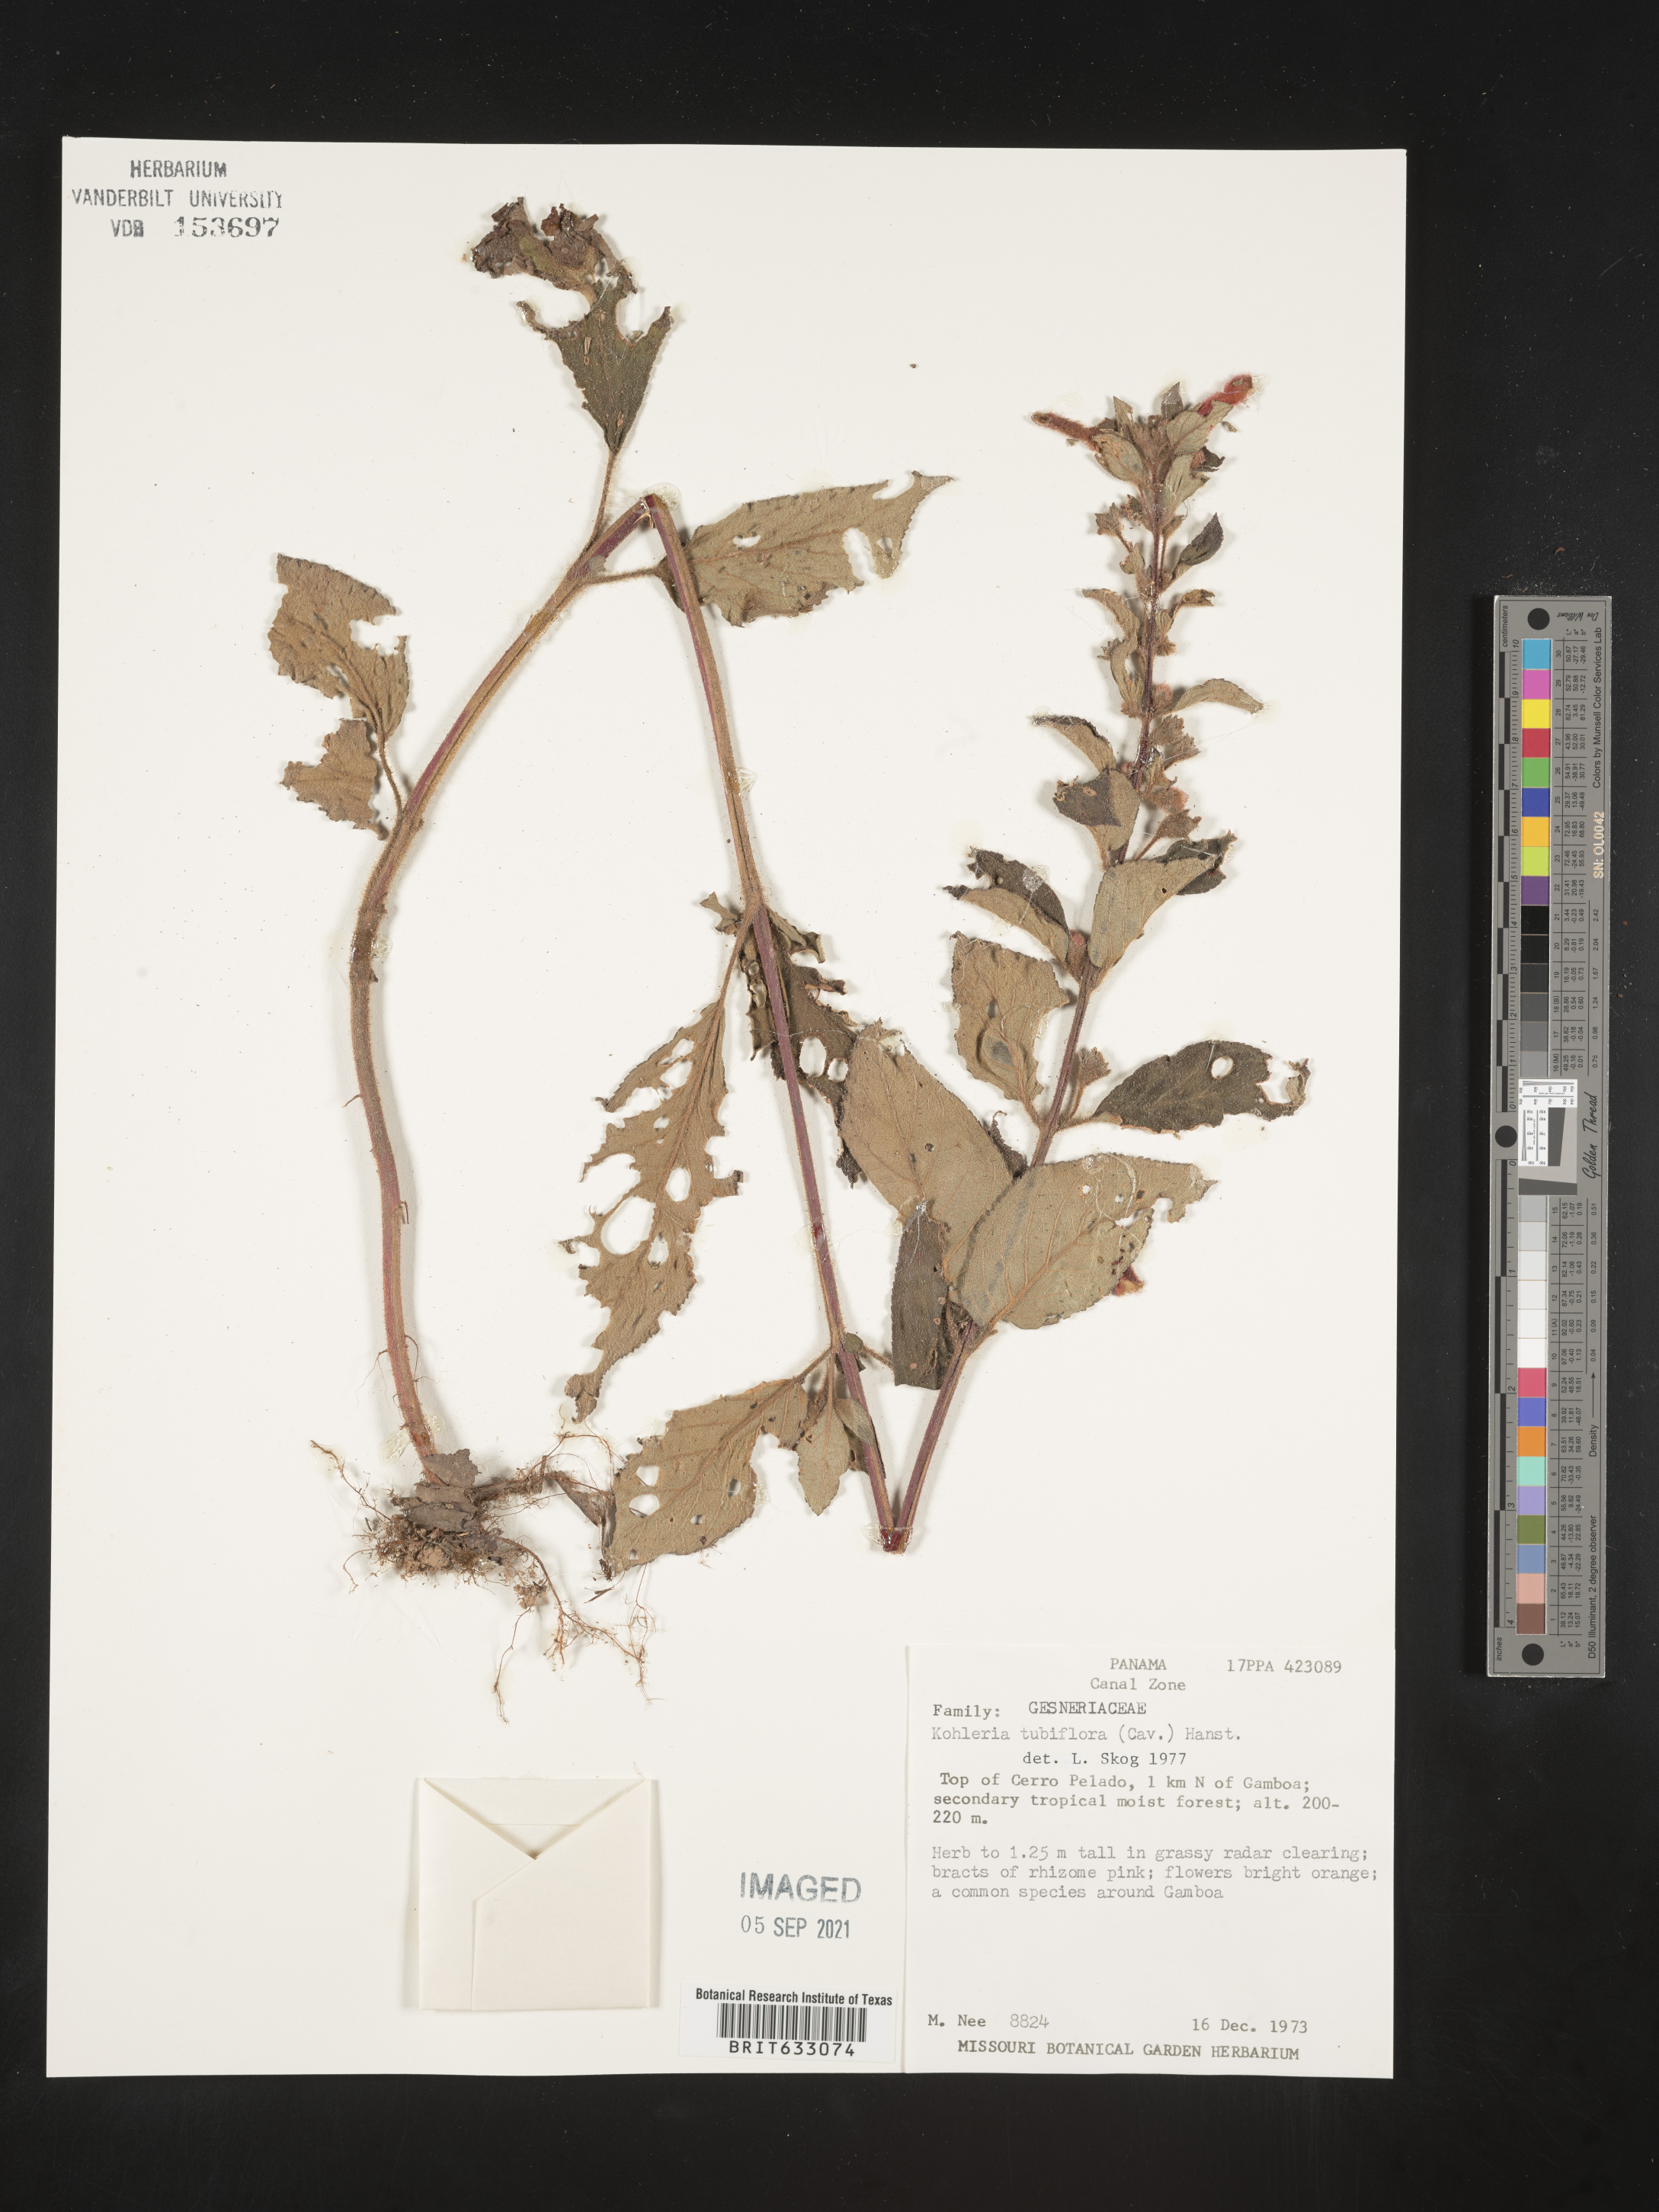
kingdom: Plantae
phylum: Tracheophyta
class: Magnoliopsida
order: Lamiales
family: Gesneriaceae
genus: Kohleria
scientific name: Kohleria
